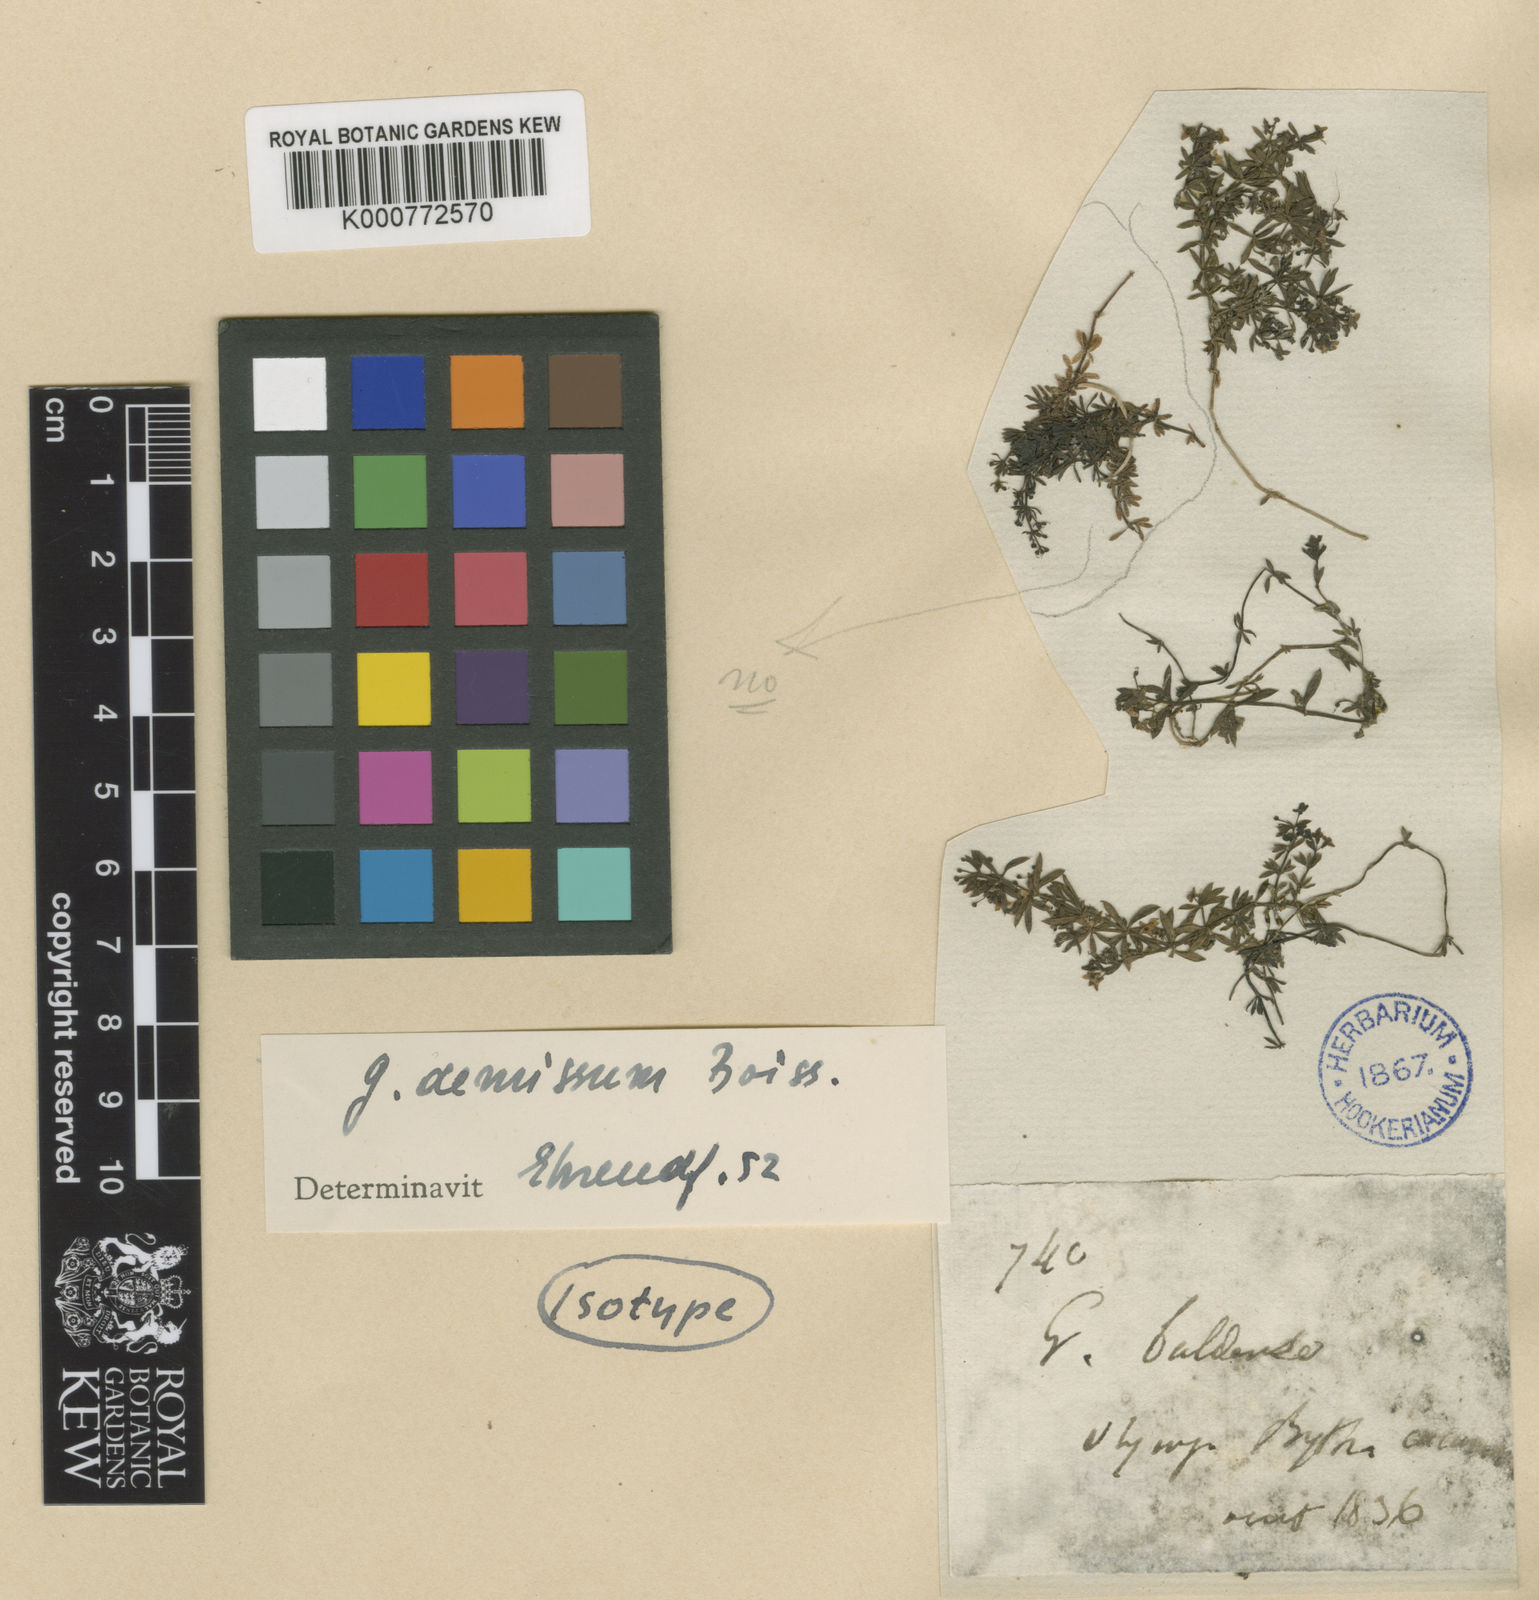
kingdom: Plantae
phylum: Tracheophyta
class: Magnoliopsida
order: Gentianales
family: Rubiaceae
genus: Galium
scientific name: Galium demissum
